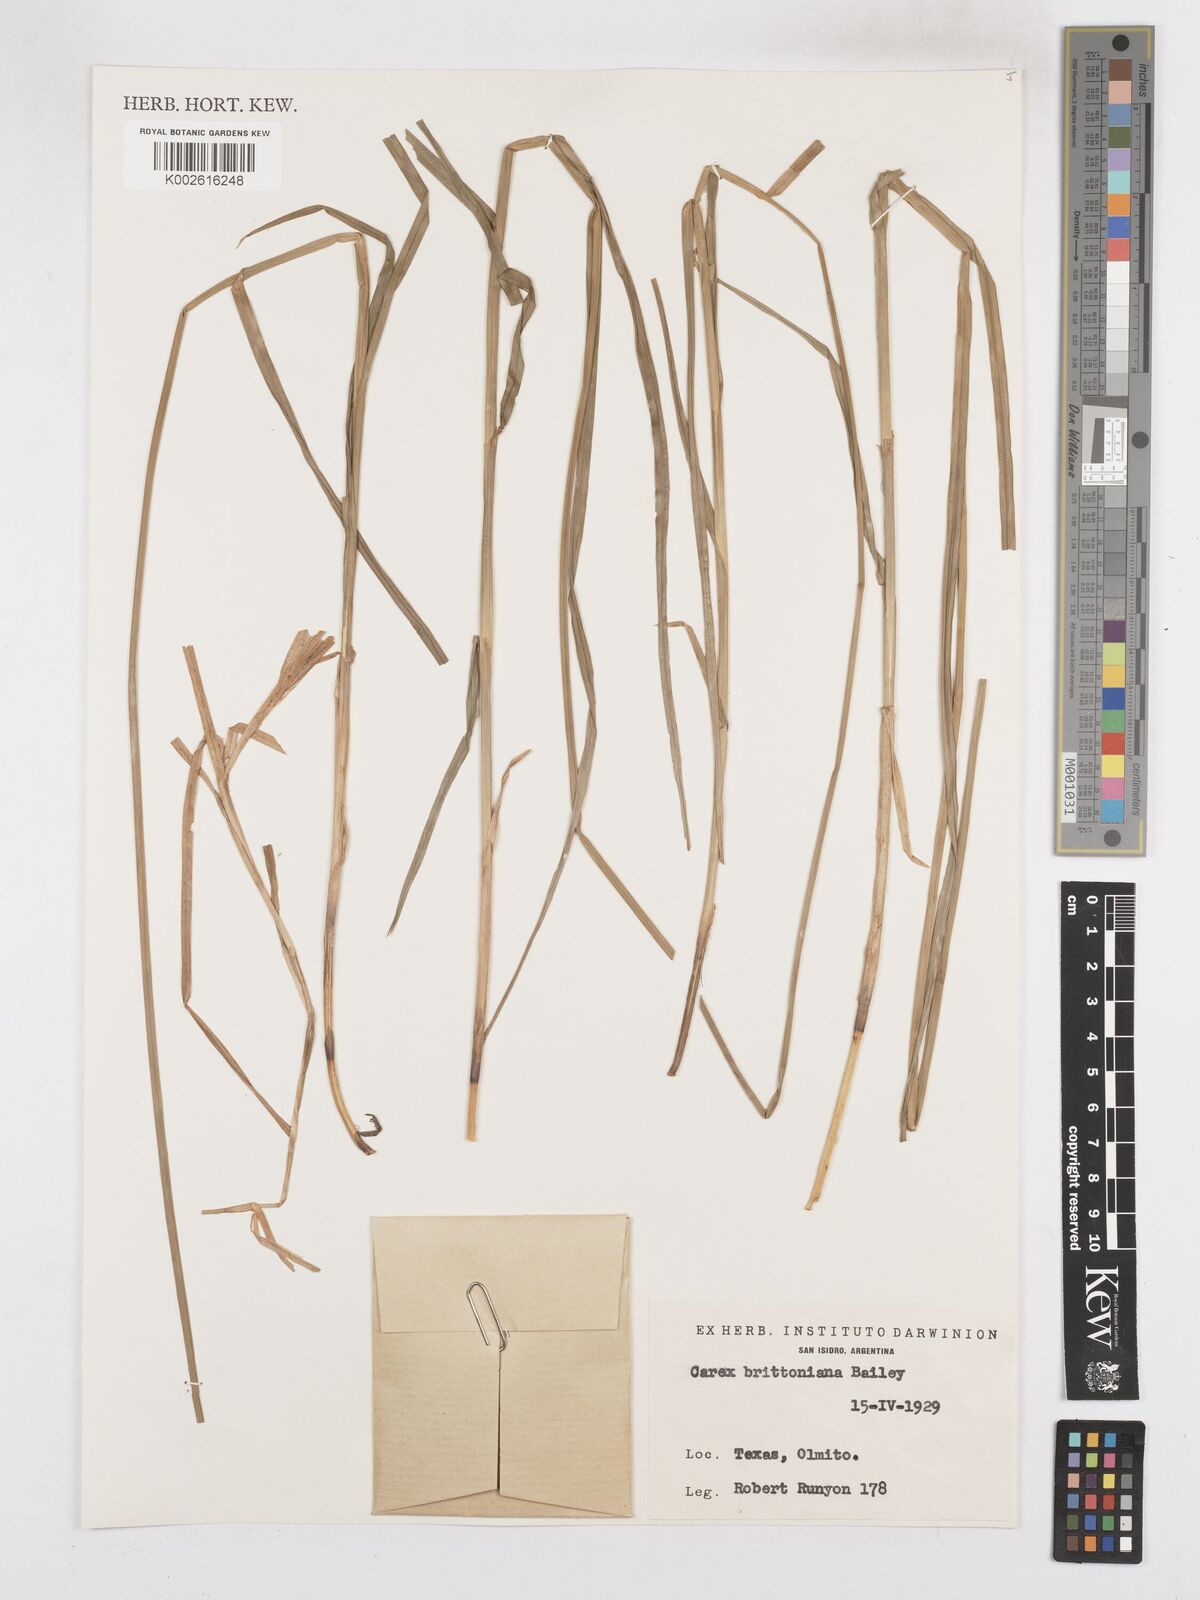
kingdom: Plantae
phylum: Tracheophyta
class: Liliopsida
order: Poales
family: Cyperaceae
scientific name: Cyperaceae
